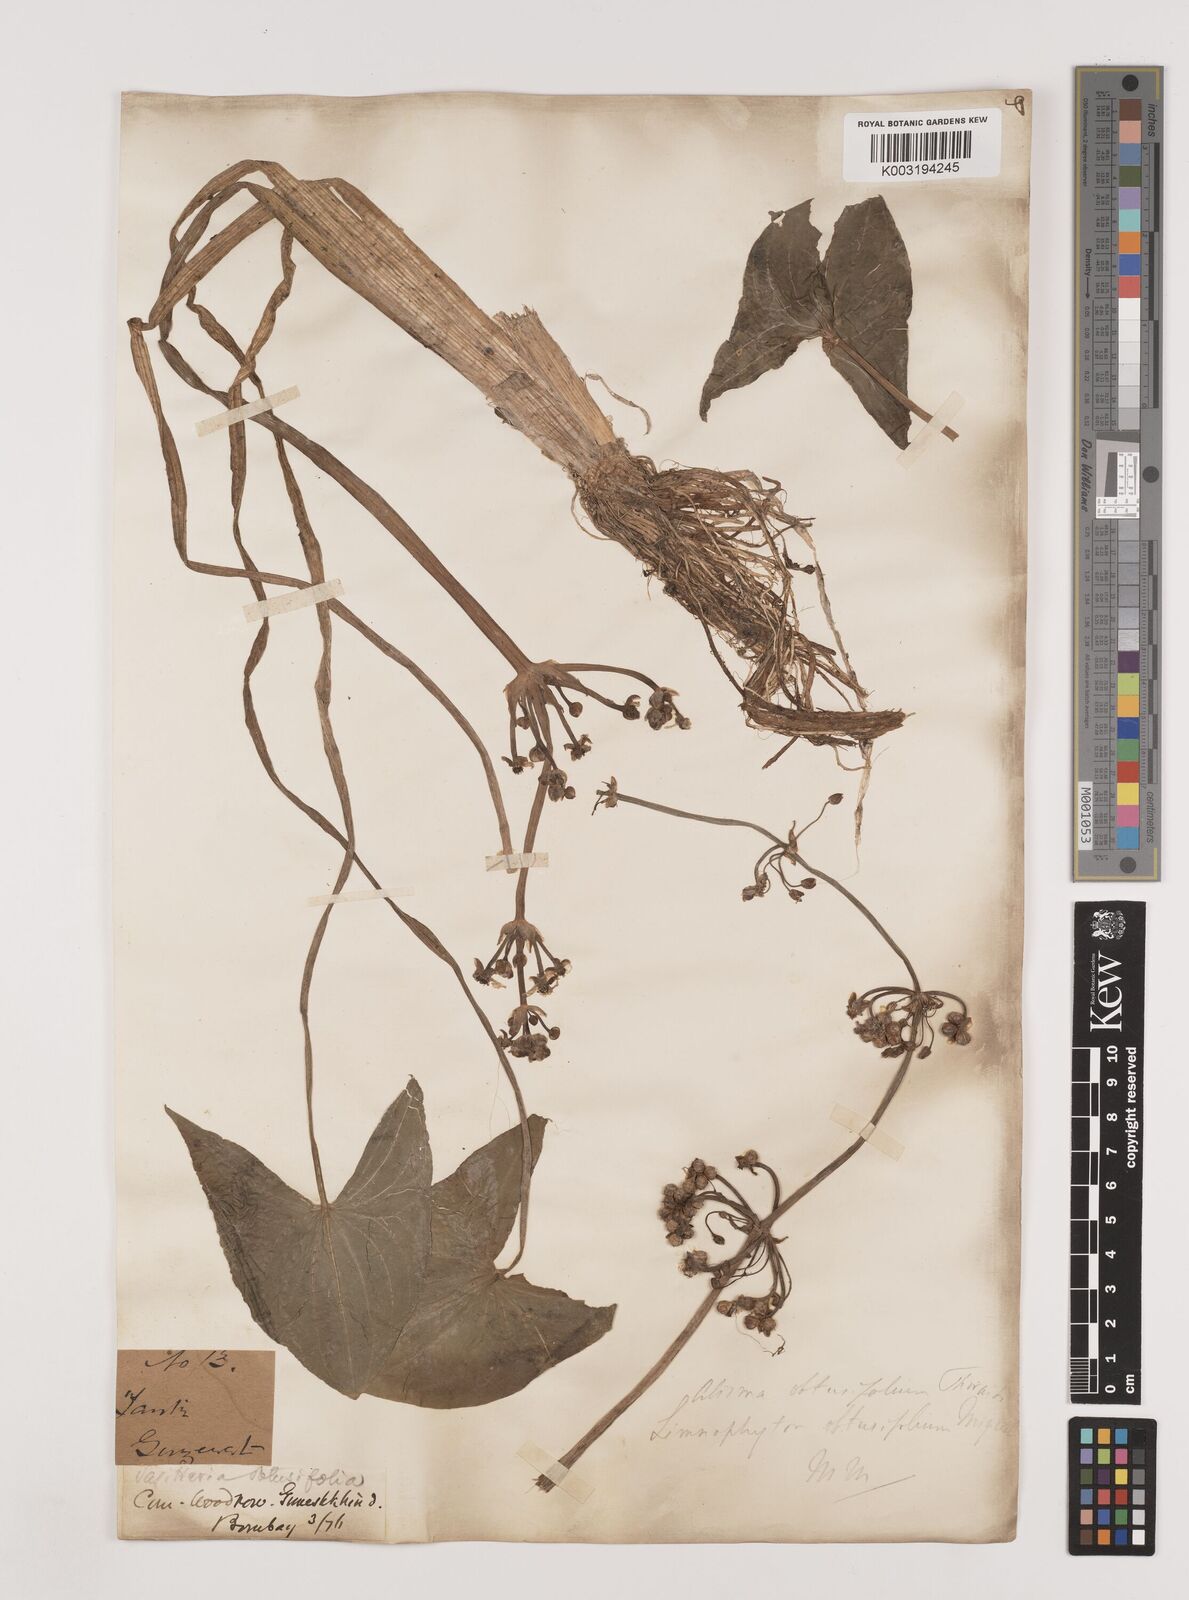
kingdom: Plantae
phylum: Tracheophyta
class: Liliopsida
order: Alismatales
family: Alismataceae
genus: Limnophyton
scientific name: Limnophyton obtusifolium
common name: Arrow head
